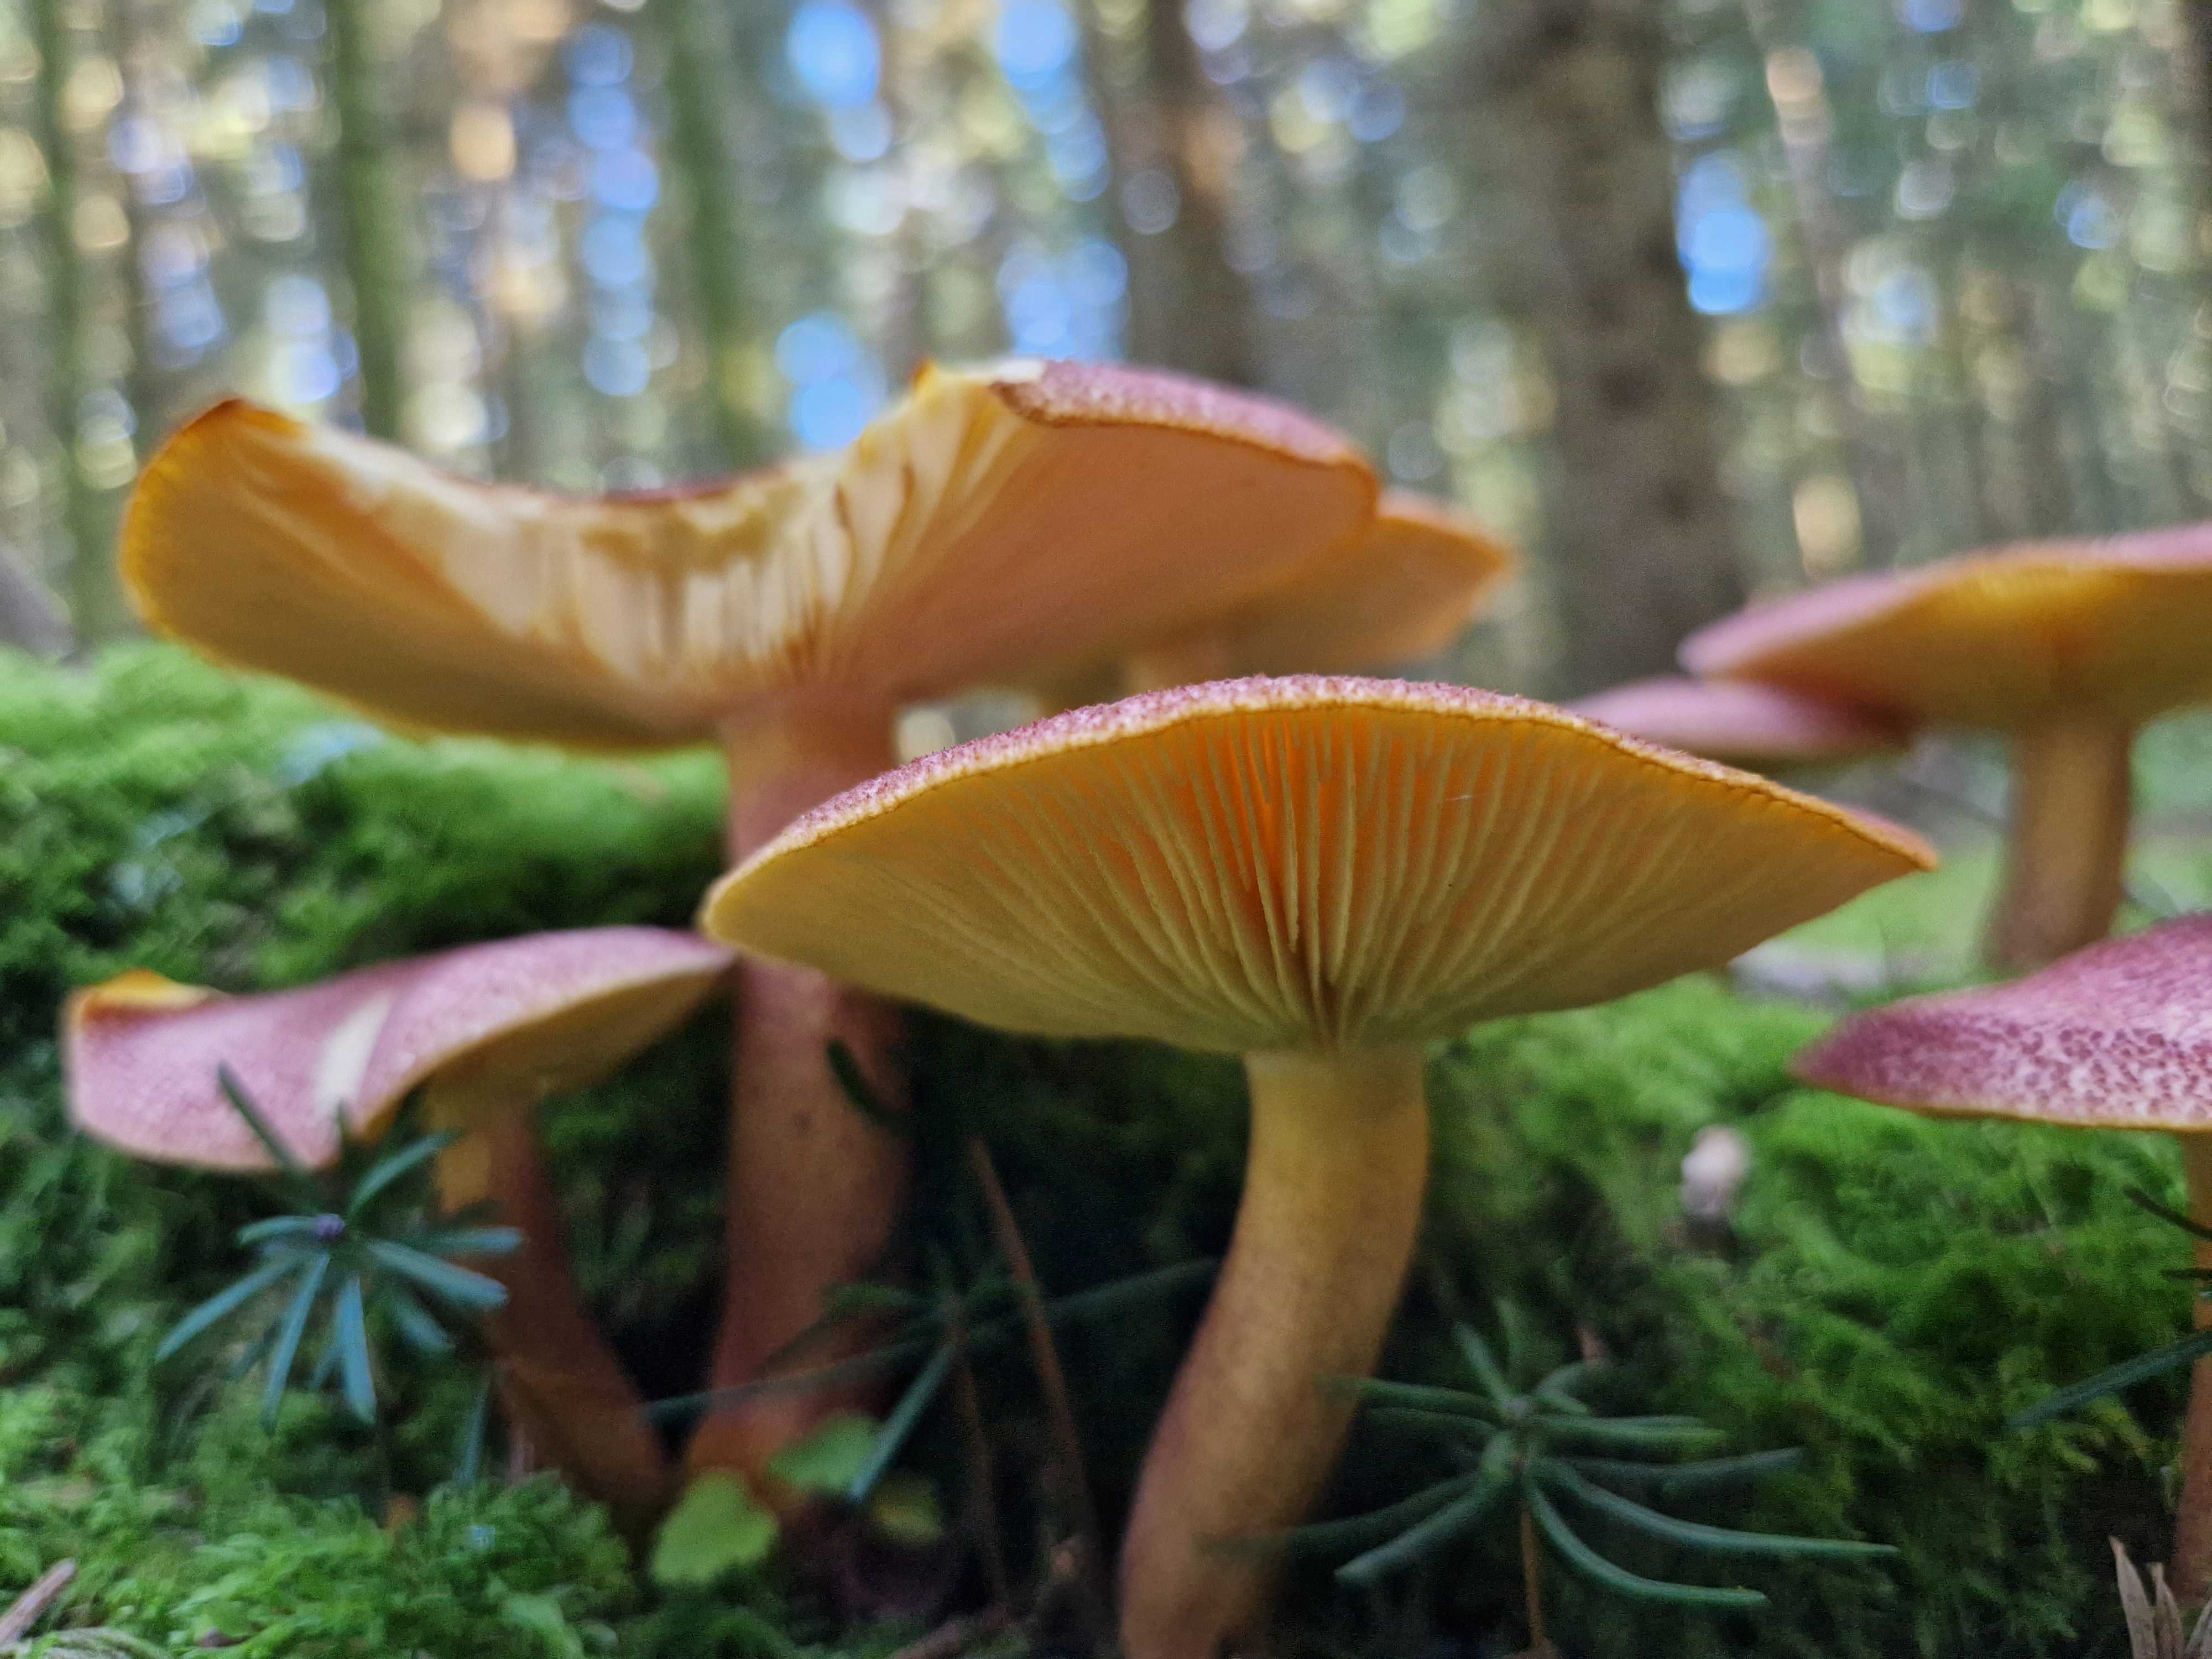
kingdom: Fungi
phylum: Basidiomycota
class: Agaricomycetes
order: Agaricales
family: Tricholomataceae
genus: Tricholomopsis
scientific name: Tricholomopsis rutilans
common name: purpur-væbnerhat
